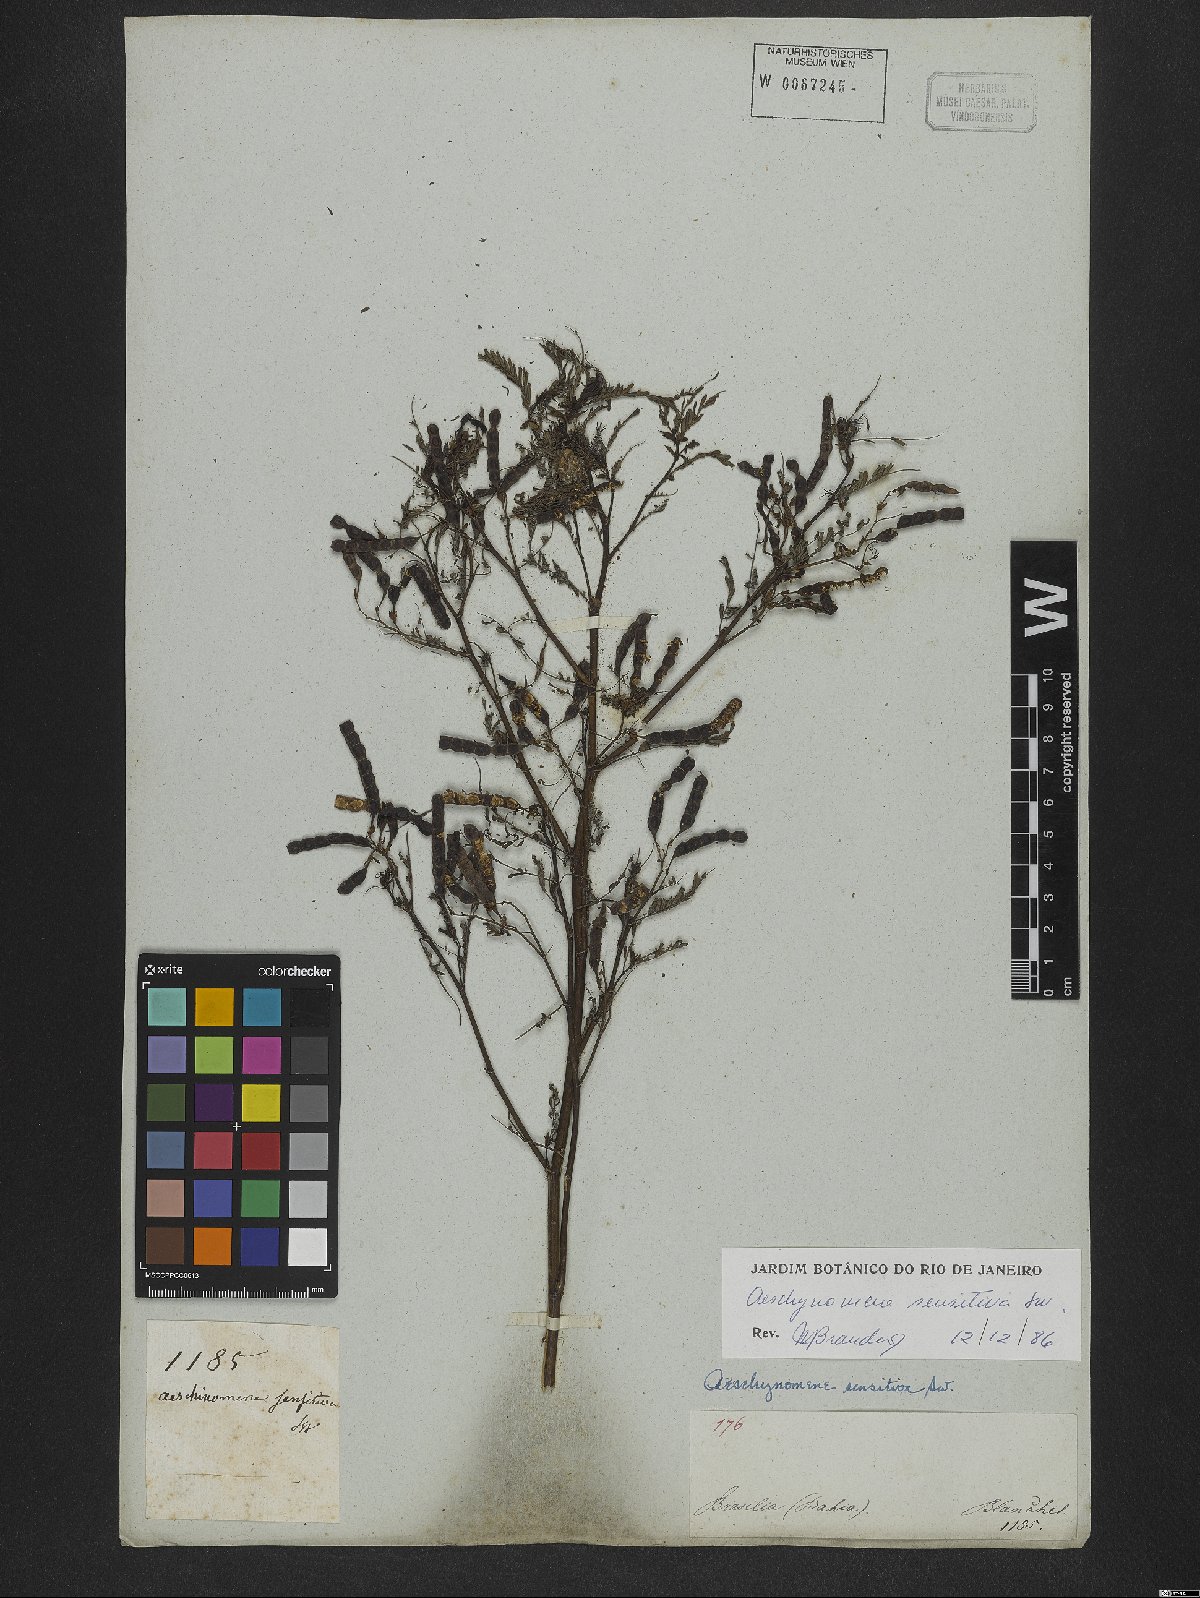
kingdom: Plantae
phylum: Tracheophyta
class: Magnoliopsida
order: Fabales
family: Fabaceae
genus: Aeschynomene
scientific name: Aeschynomene sensitiva
